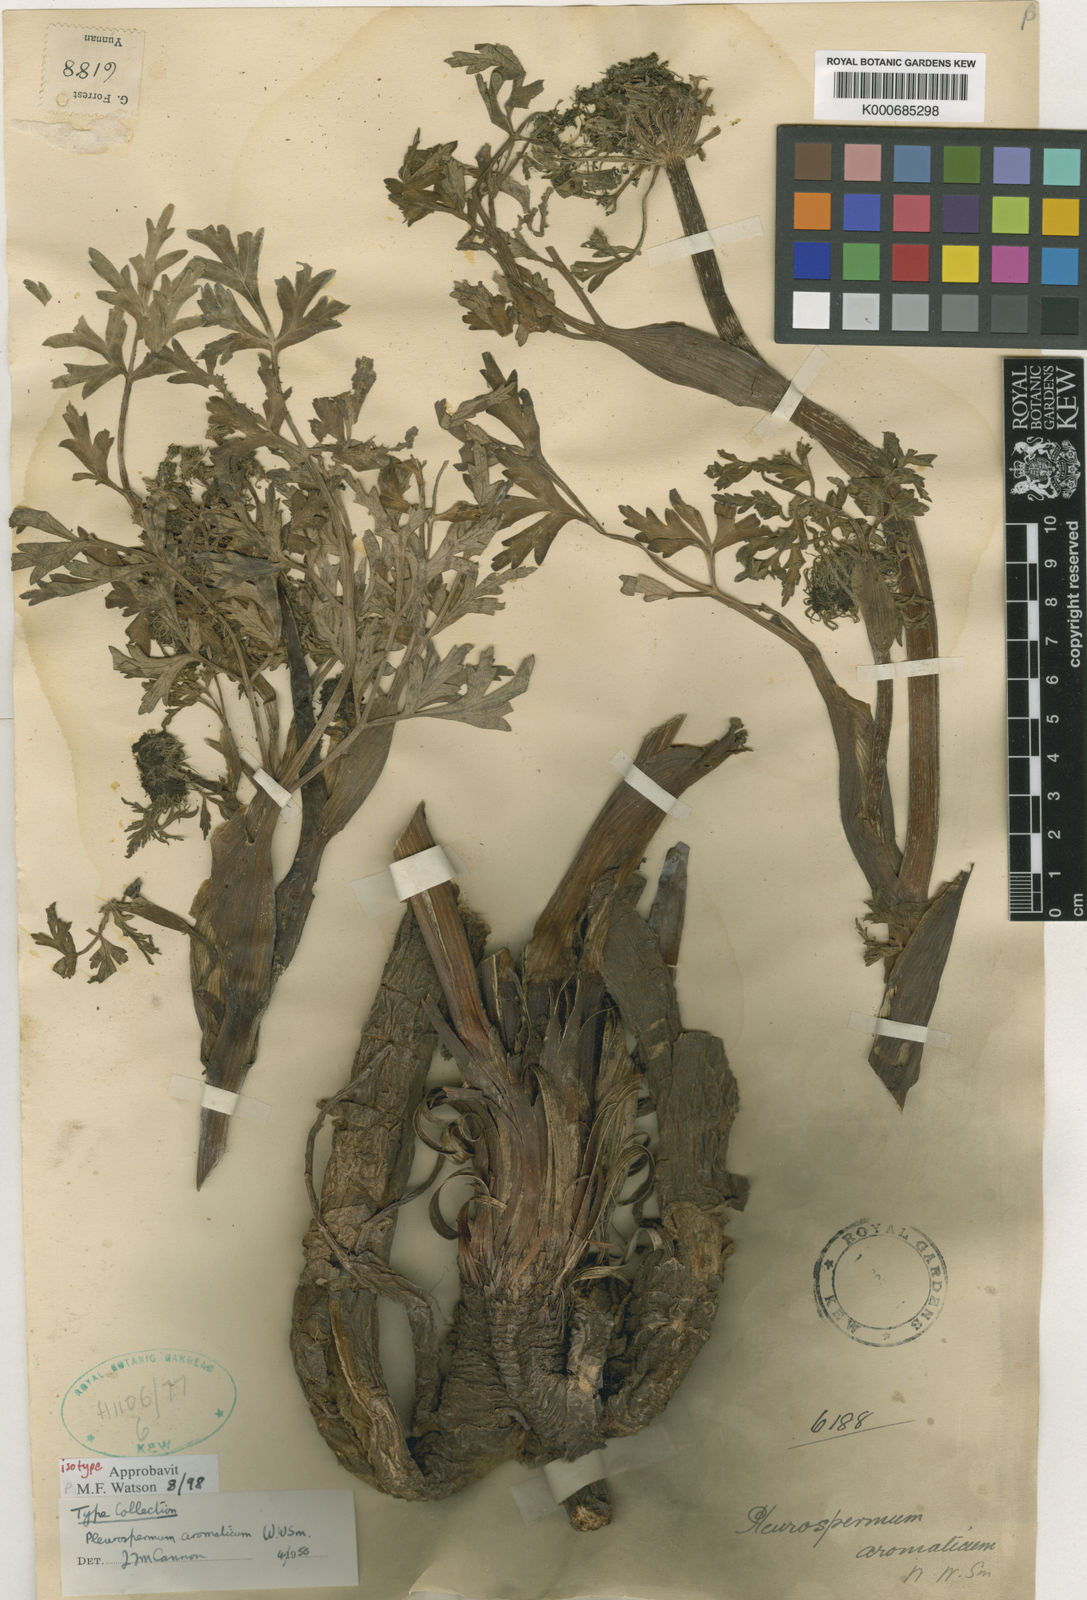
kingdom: Plantae
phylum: Tracheophyta
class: Magnoliopsida
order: Apiales
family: Apiaceae
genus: Oreocomopsis
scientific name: Oreocomopsis dochenensis
